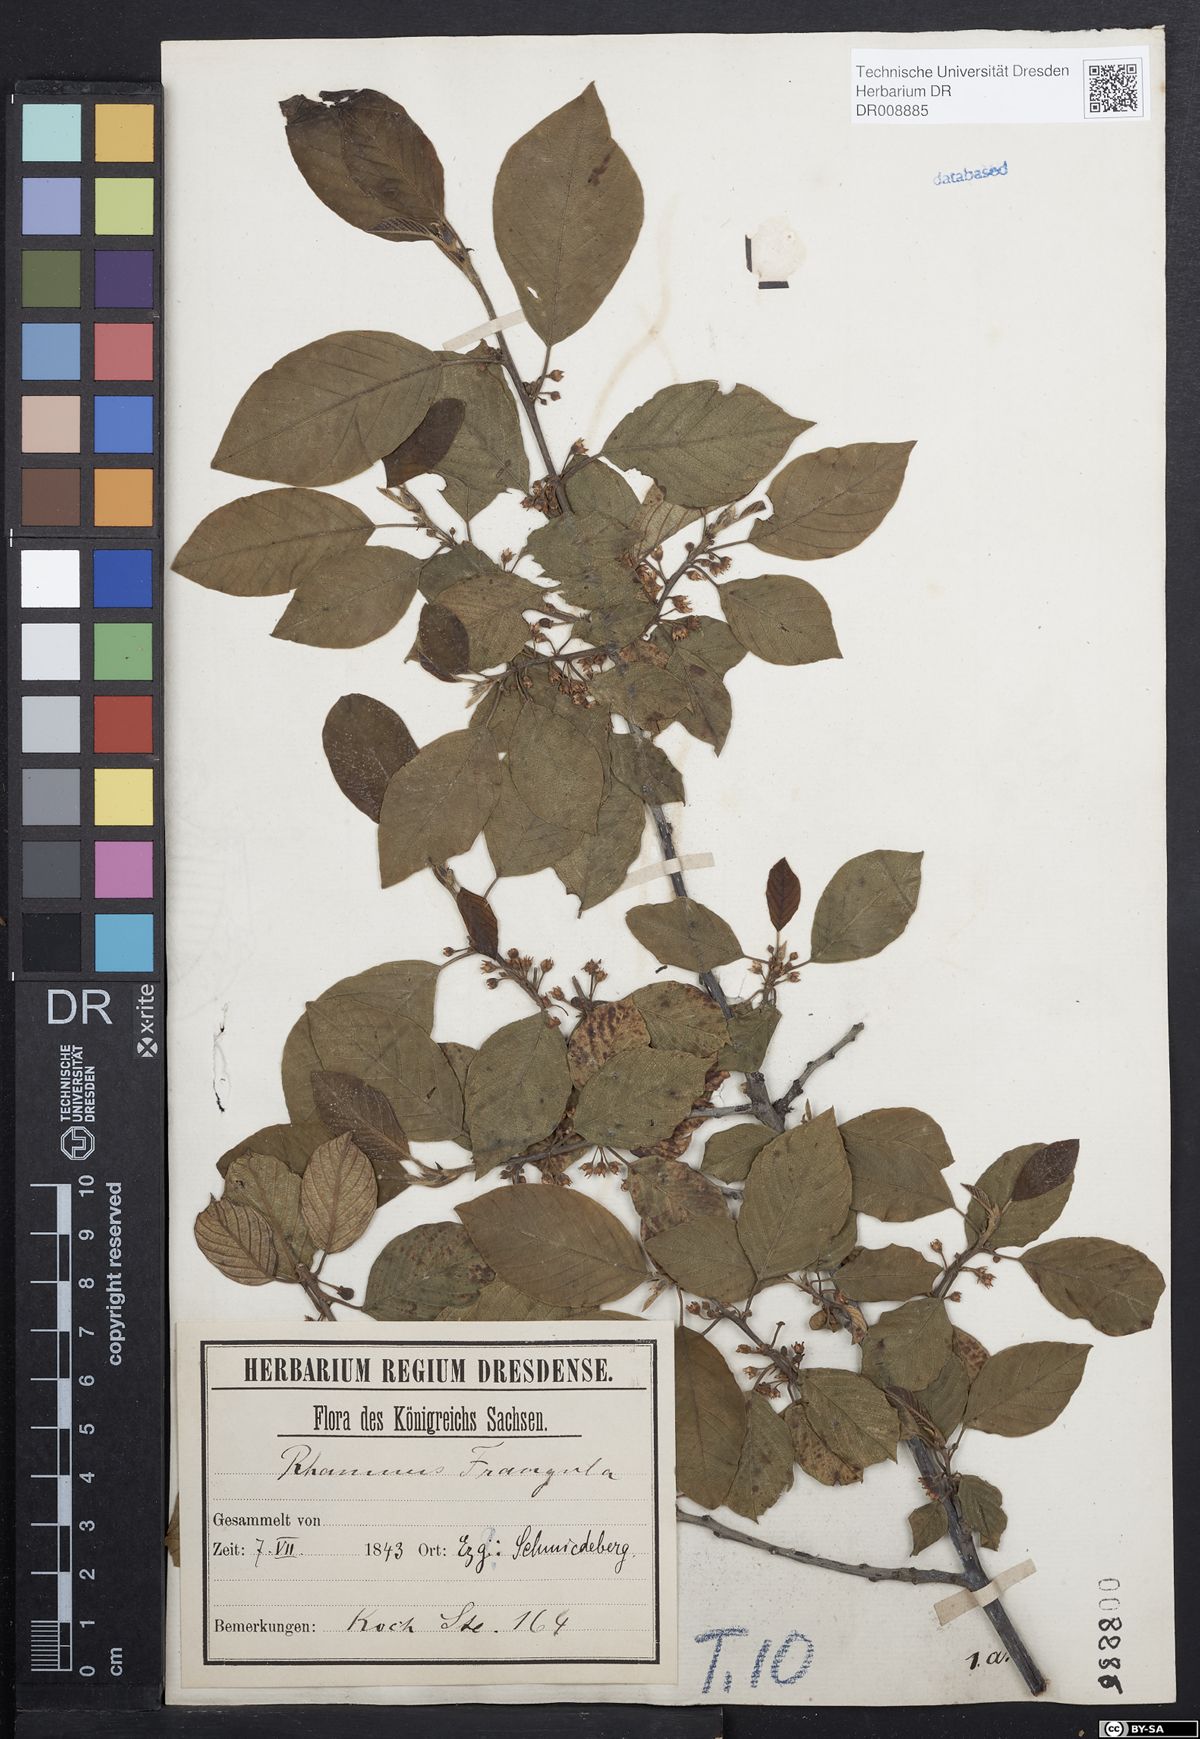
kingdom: Plantae
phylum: Tracheophyta
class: Magnoliopsida
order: Rosales
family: Rhamnaceae
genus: Frangula
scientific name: Frangula alnus
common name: Alder buckthorn
